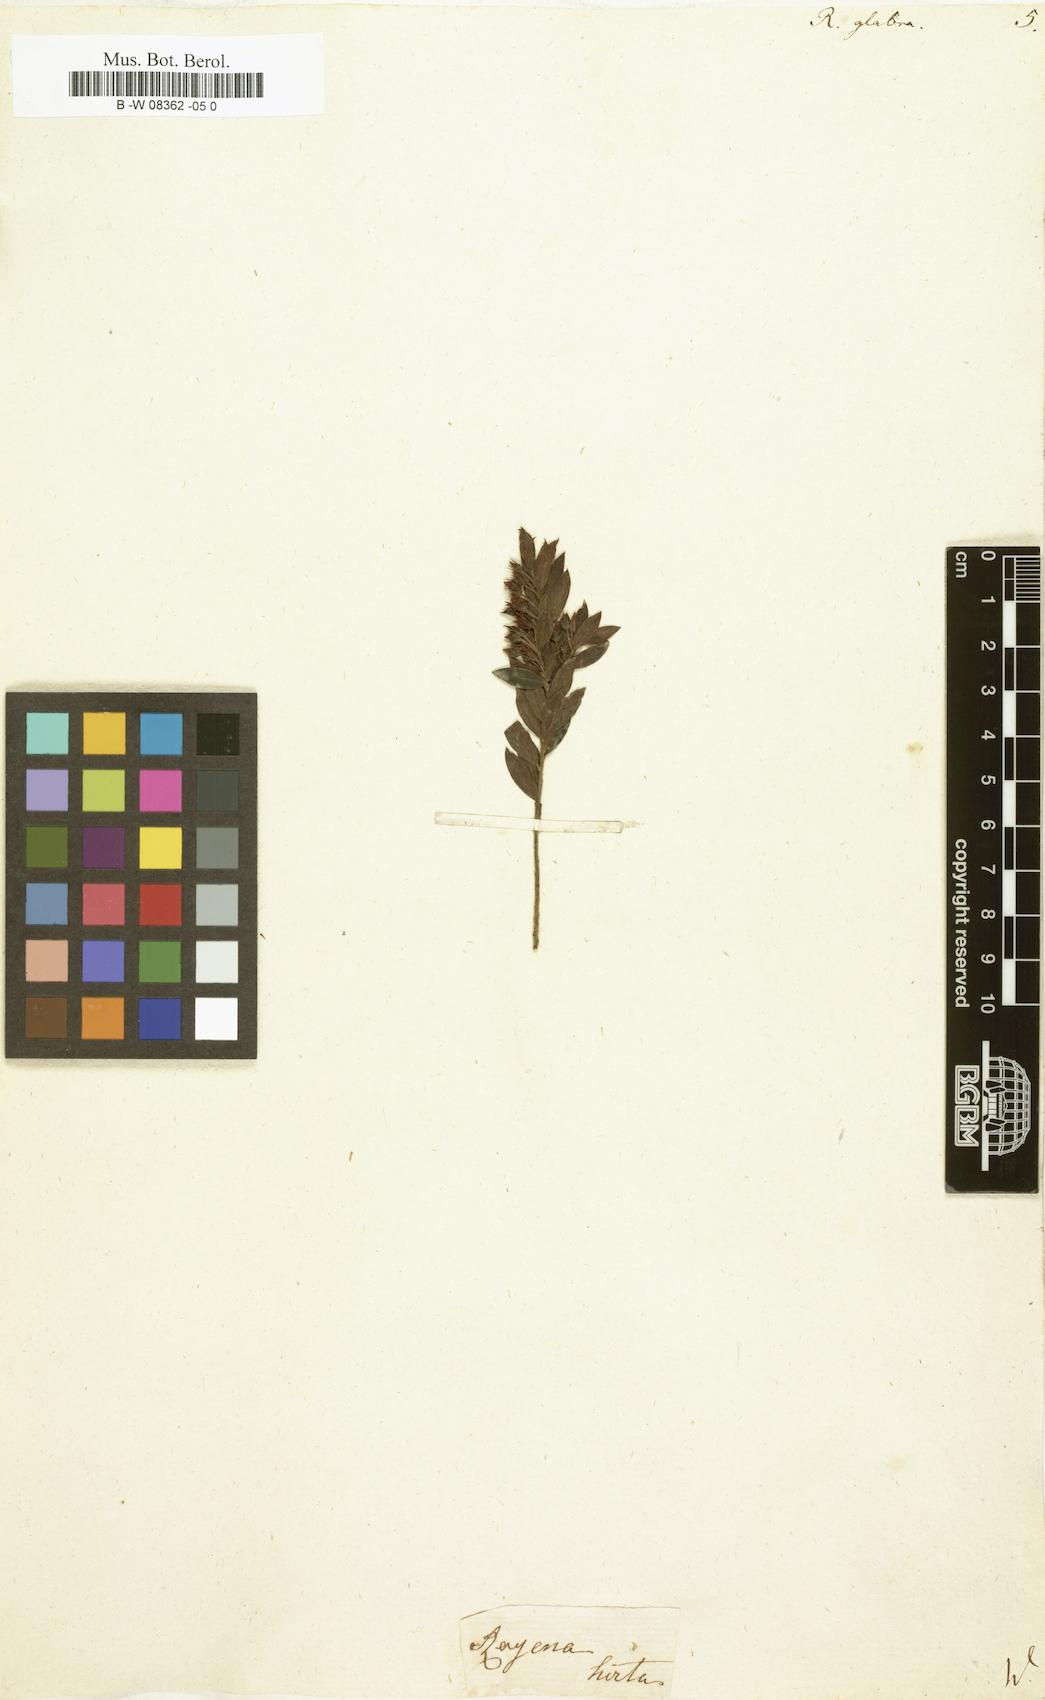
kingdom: Plantae
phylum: Tracheophyta
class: Magnoliopsida
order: Ericales
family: Ebenaceae
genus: Diospyros
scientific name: Diospyros glabra
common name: Fynbos star apple
